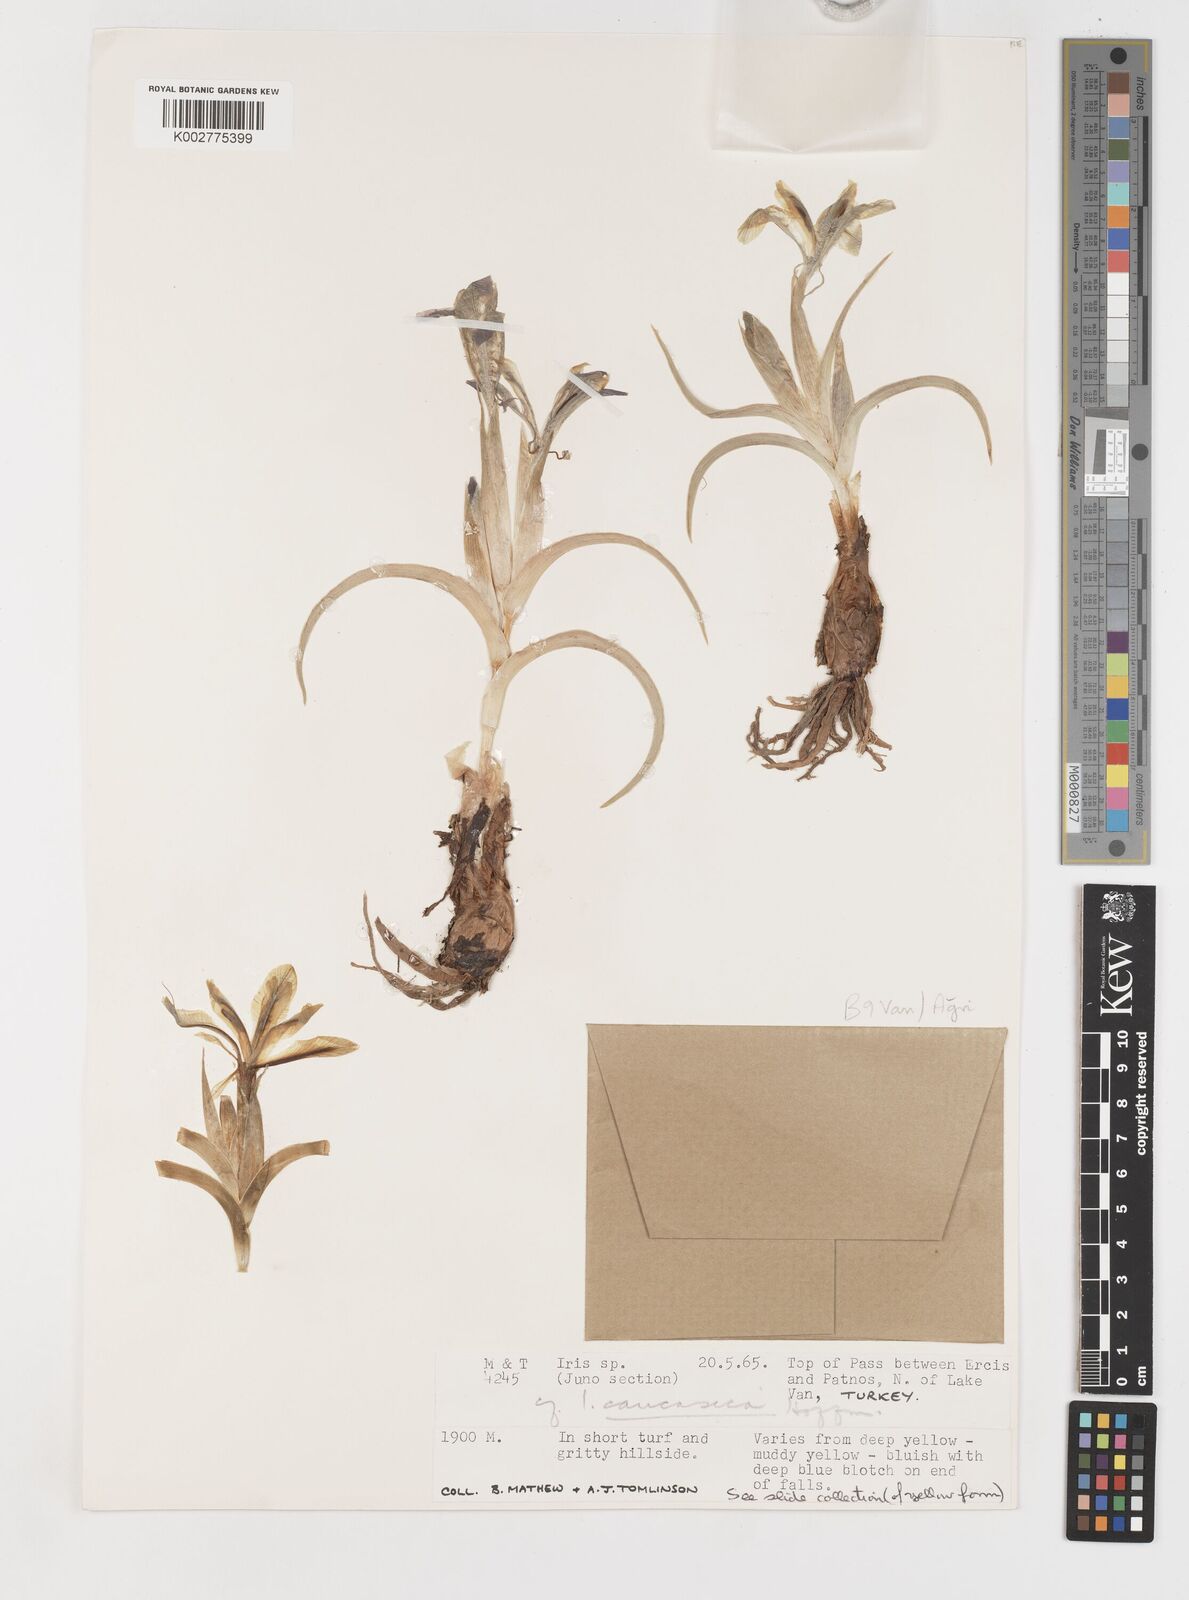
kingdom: Plantae
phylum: Tracheophyta
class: Liliopsida
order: Asparagales
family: Iridaceae
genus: Iris
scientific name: Iris caucasica
